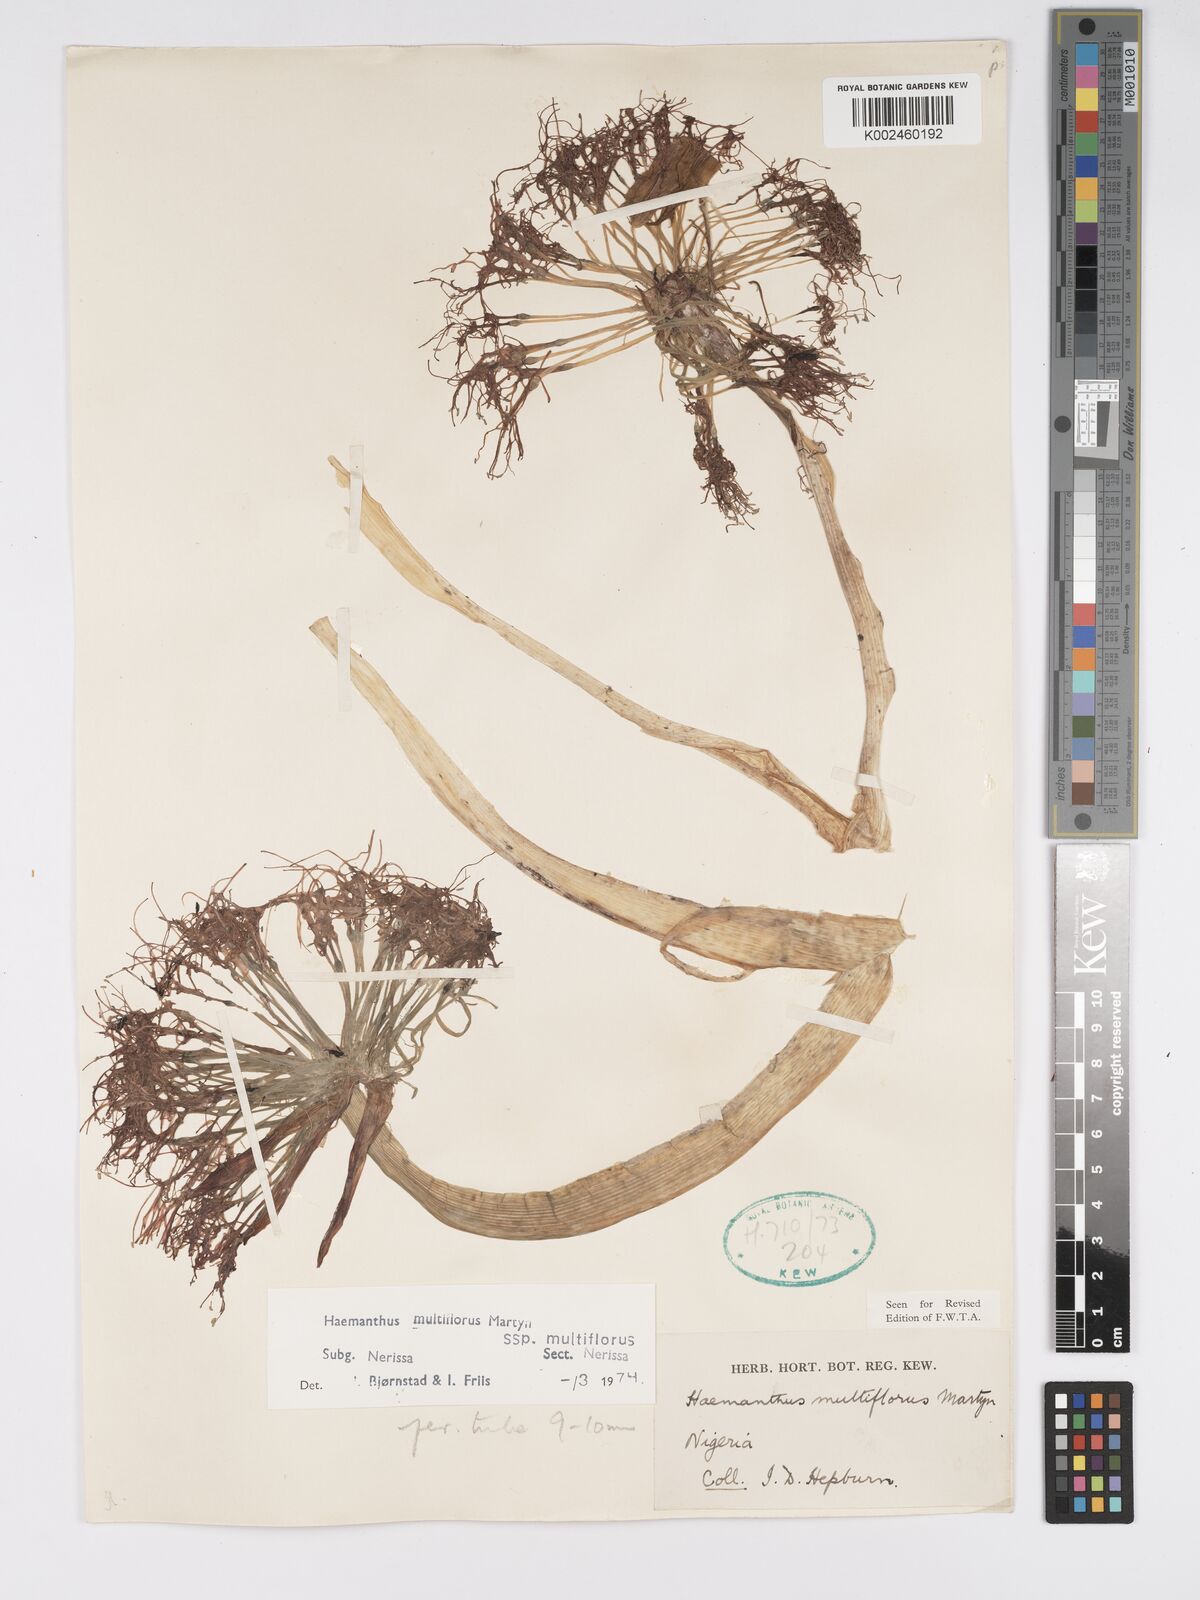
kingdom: Plantae
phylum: Tracheophyta
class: Liliopsida
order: Asparagales
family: Amaryllidaceae
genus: Scadoxus
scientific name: Scadoxus multiflorus
